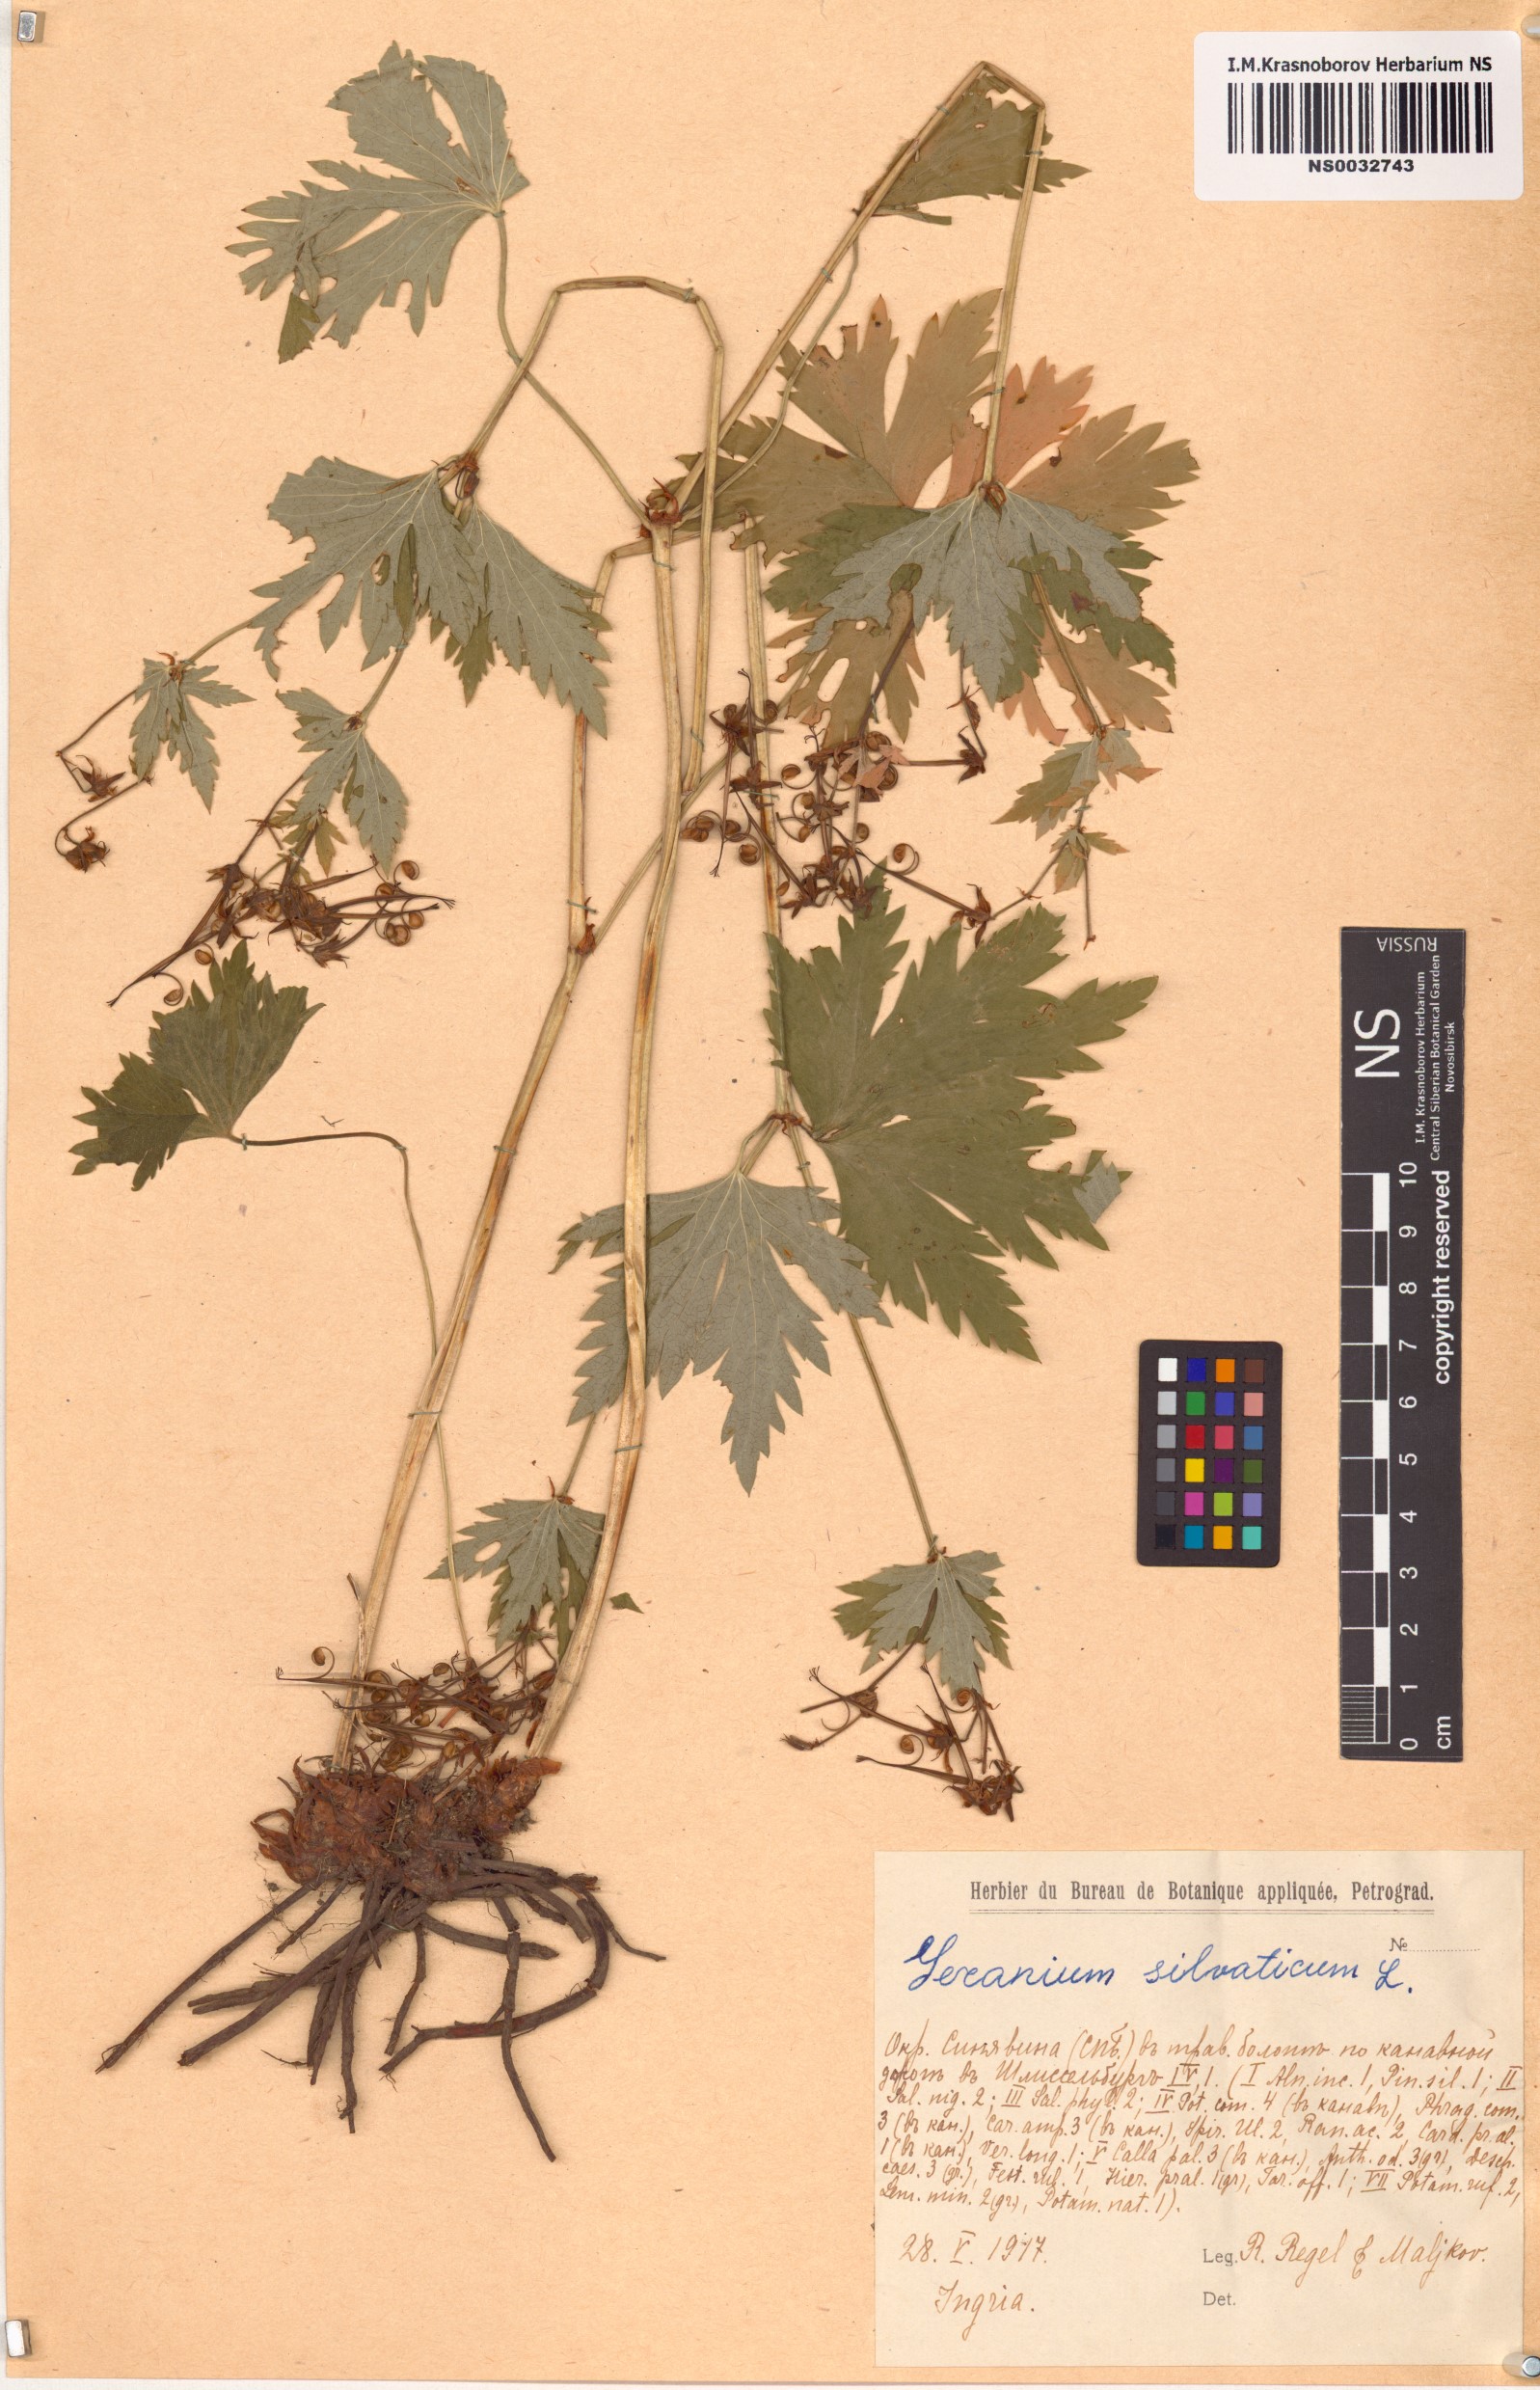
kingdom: Plantae
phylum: Tracheophyta
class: Magnoliopsida
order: Geraniales
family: Geraniaceae
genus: Geranium
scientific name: Geranium sylvaticum
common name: Wood crane's-bill
